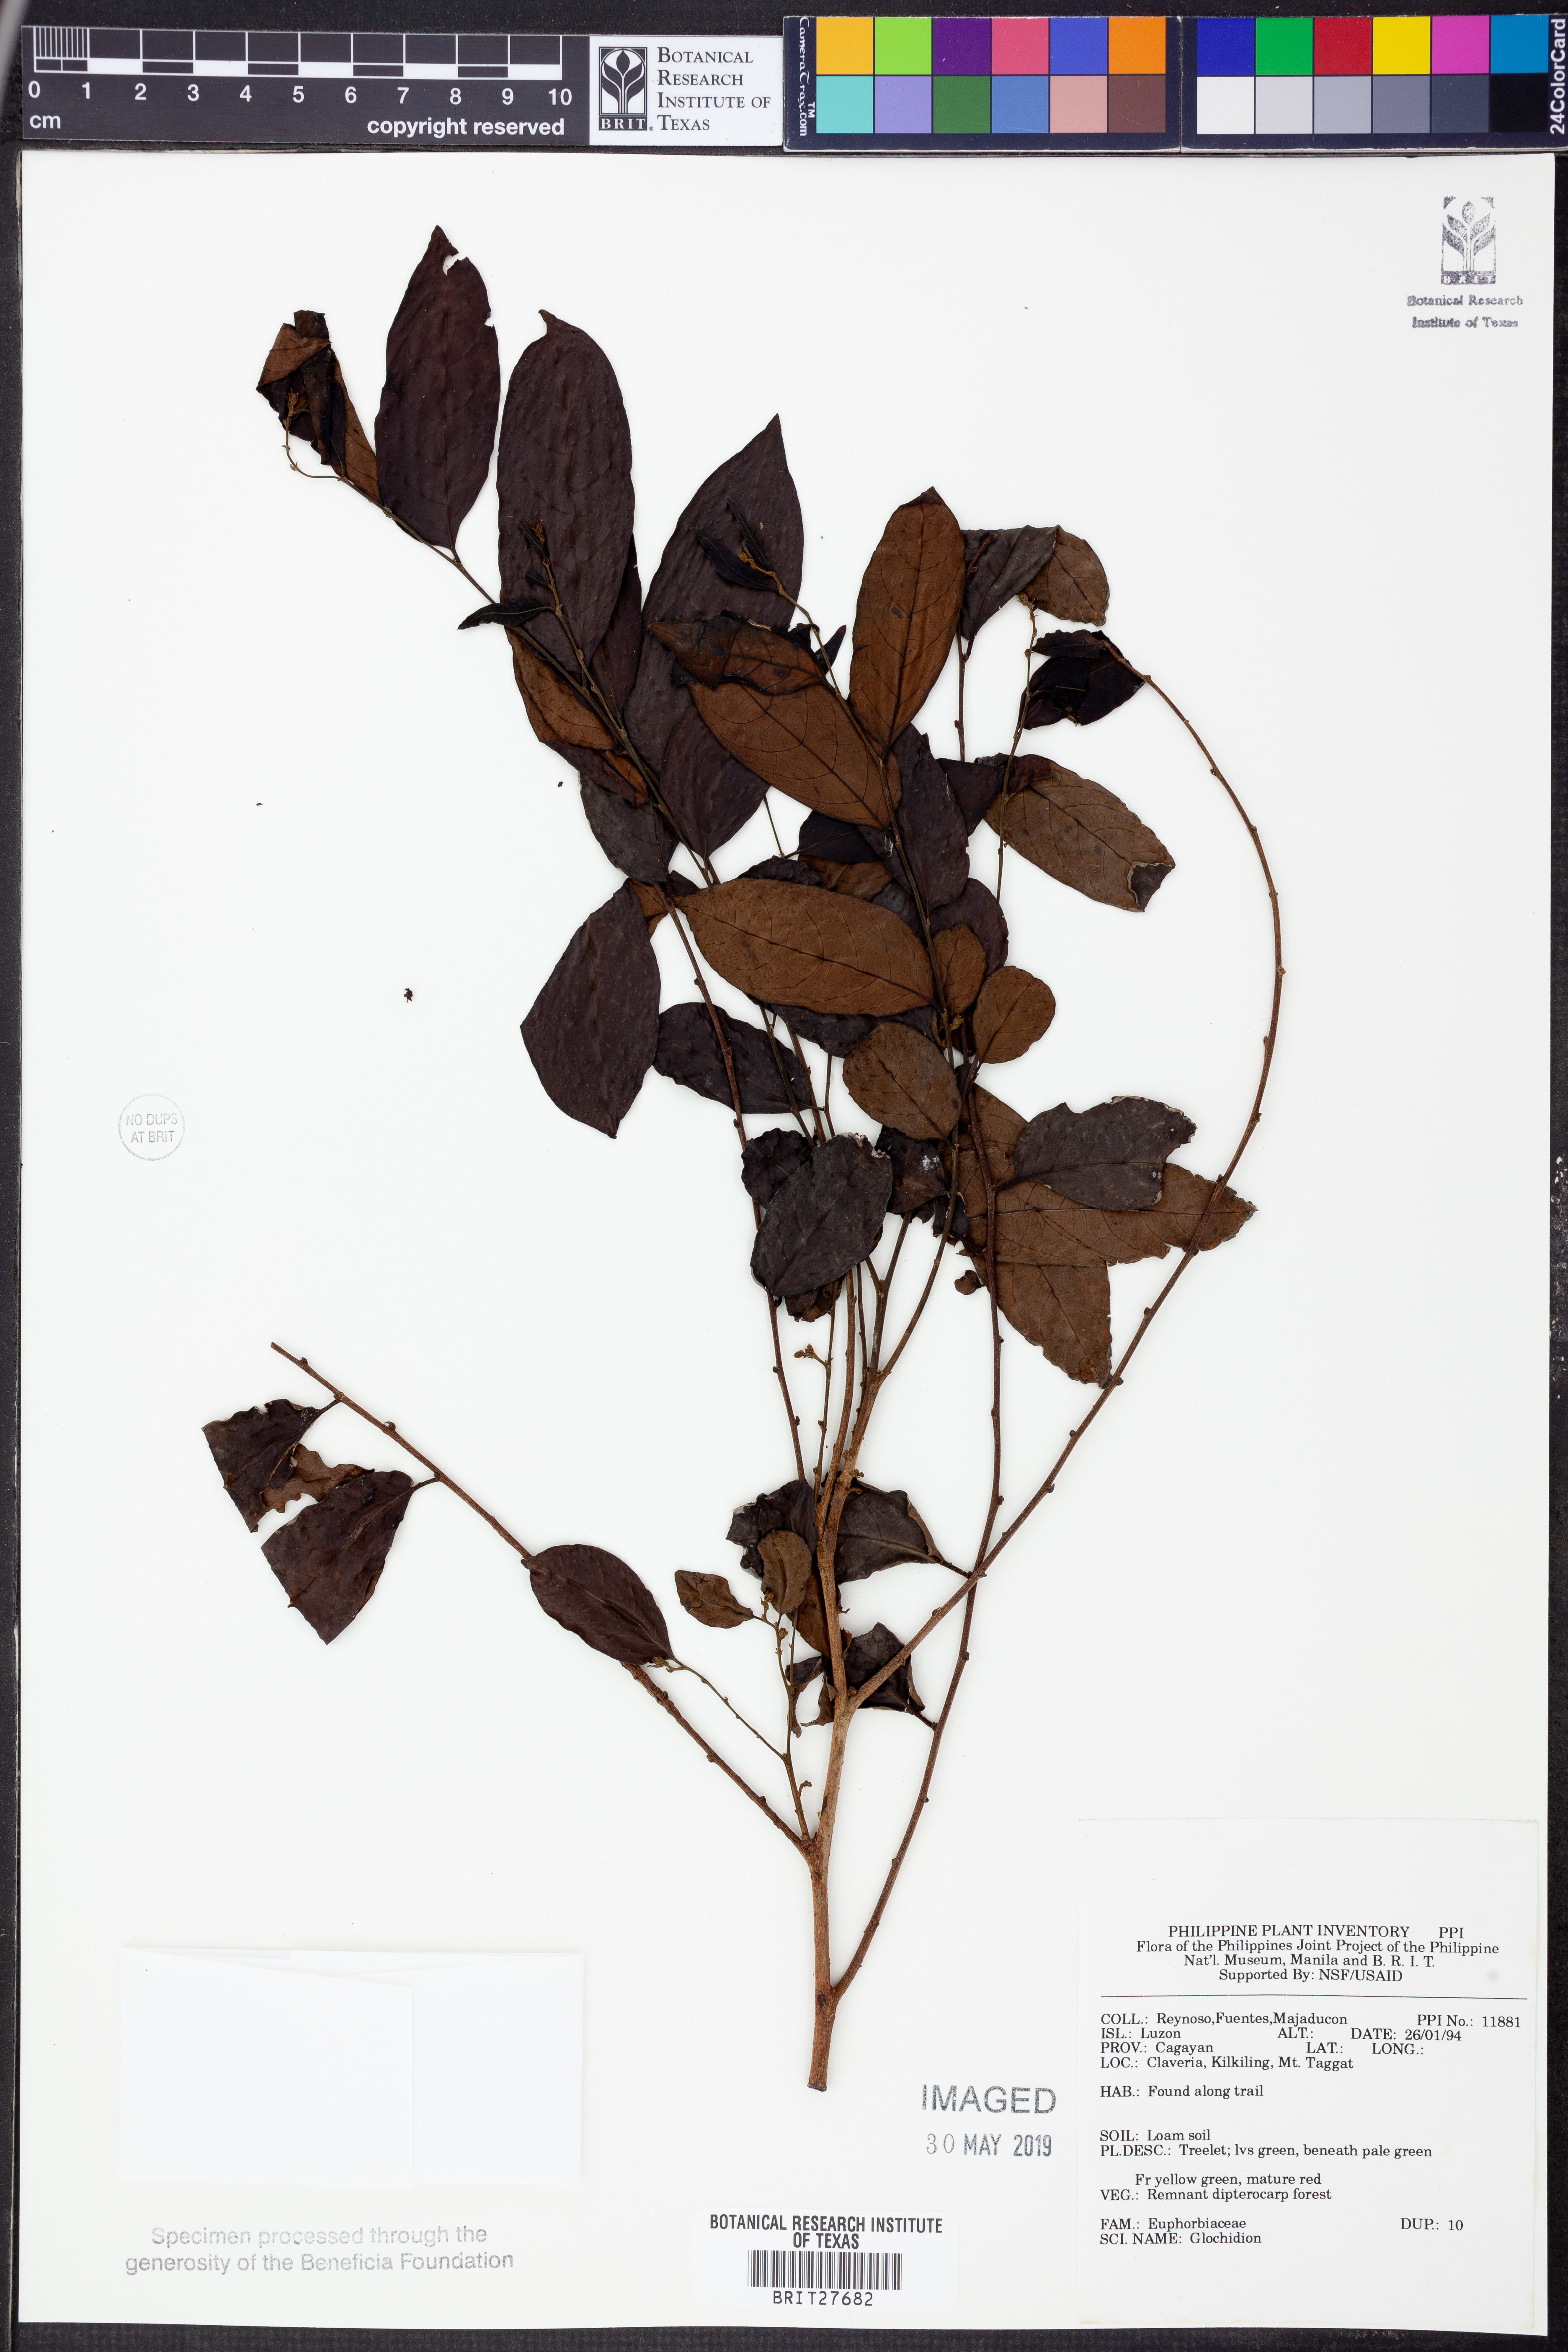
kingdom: Plantae
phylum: Tracheophyta
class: Magnoliopsida
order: Malpighiales
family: Phyllanthaceae
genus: Glochidion
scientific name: Glochidion
